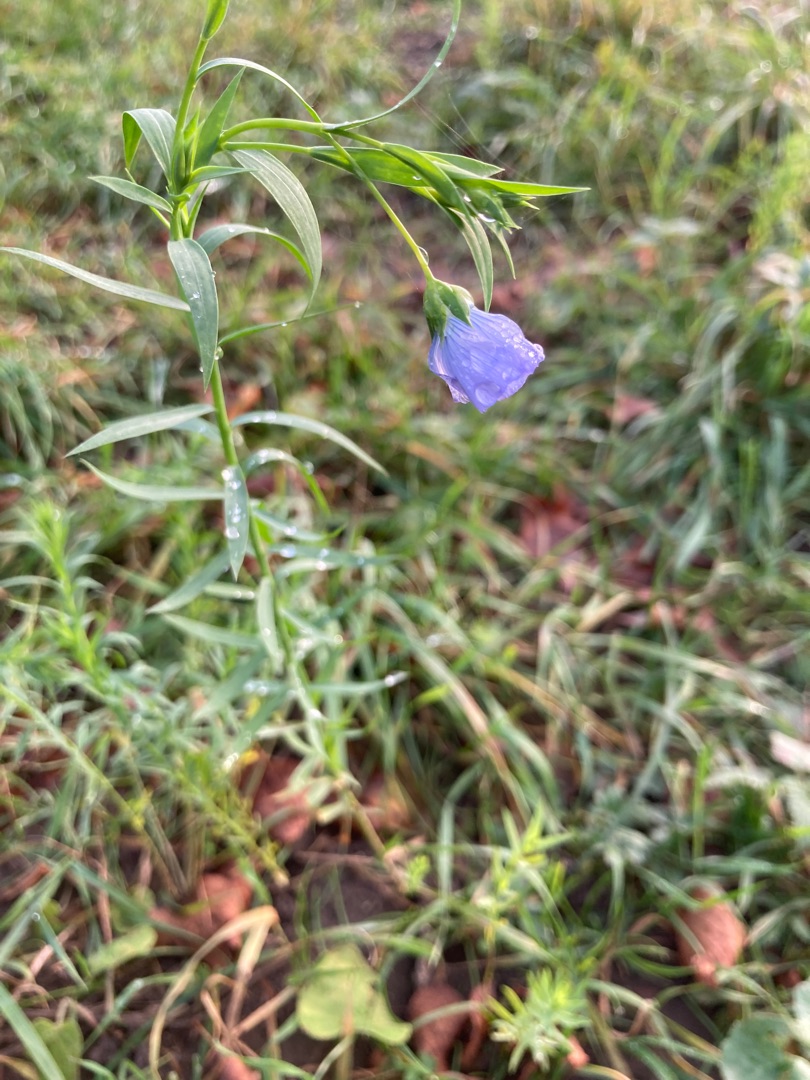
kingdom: Plantae
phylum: Tracheophyta
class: Magnoliopsida
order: Malpighiales
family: Linaceae
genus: Linum
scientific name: Linum usitatissimum
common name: Almindelig hør
